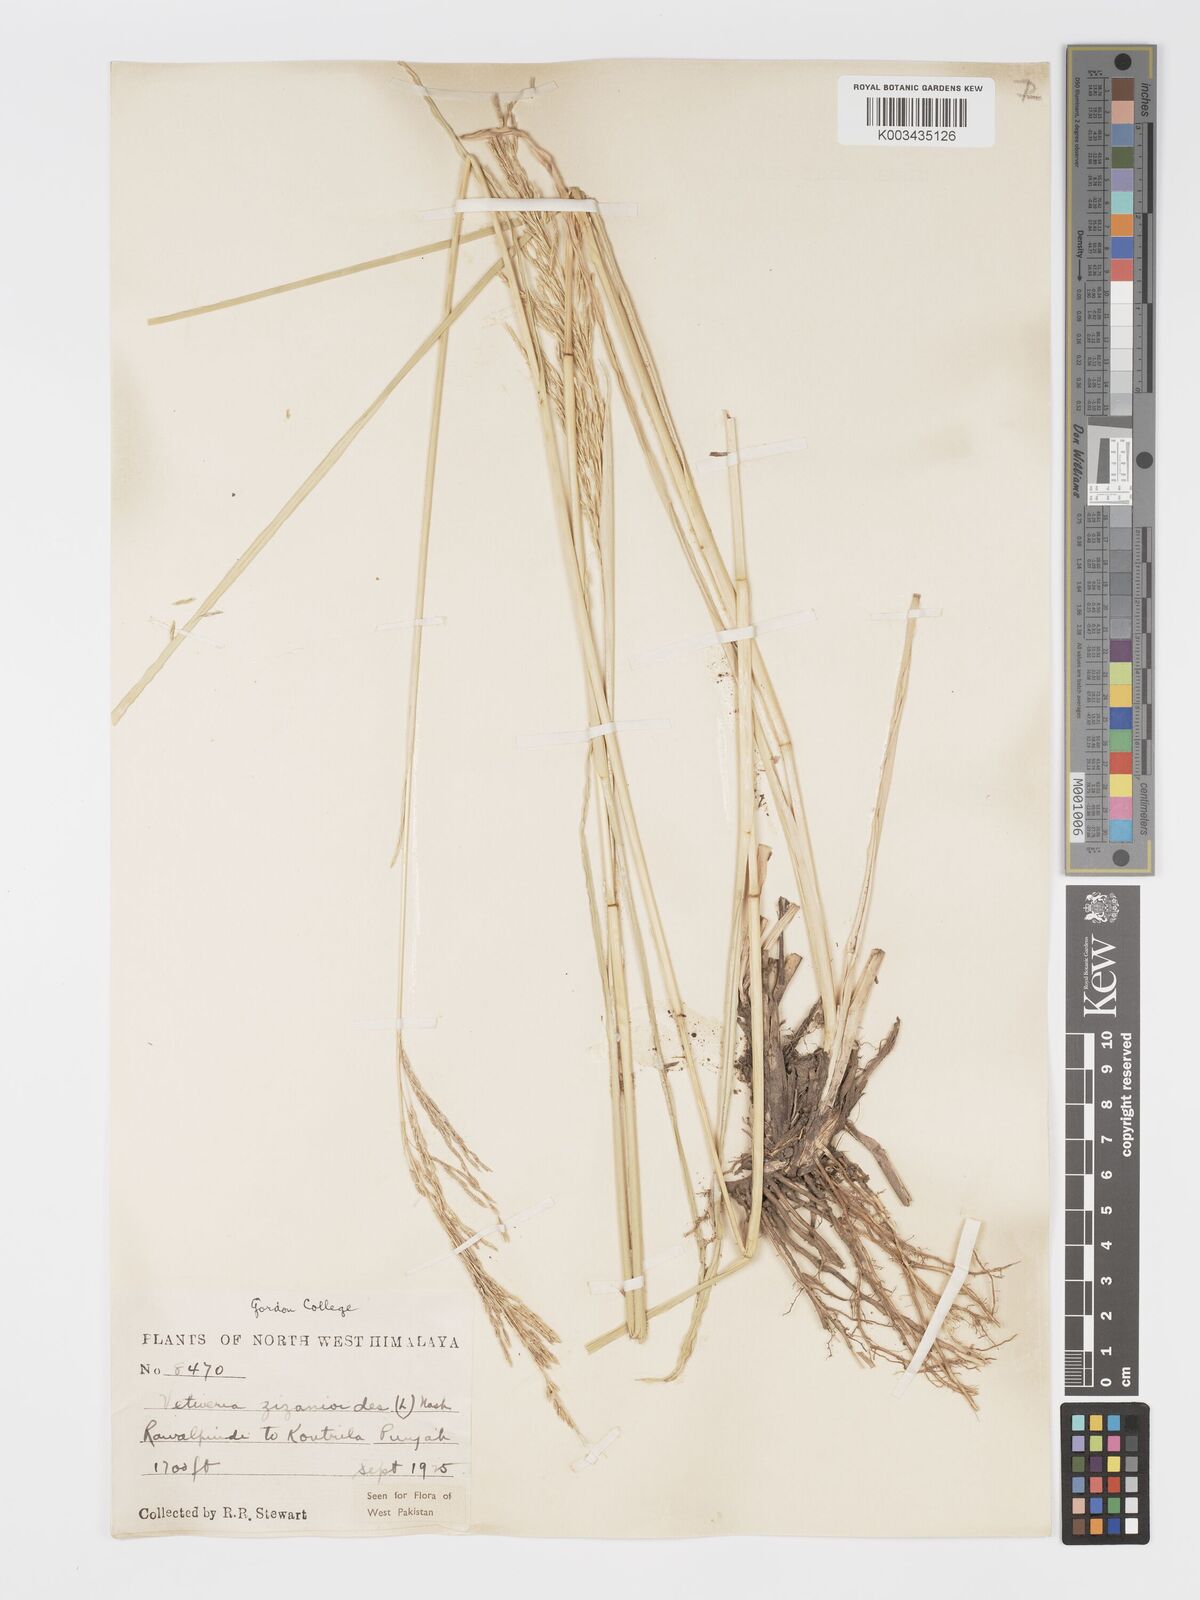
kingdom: Plantae
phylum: Tracheophyta
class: Liliopsida
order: Poales
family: Poaceae
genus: Chrysopogon
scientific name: Chrysopogon zizanioides
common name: False beardgrass
